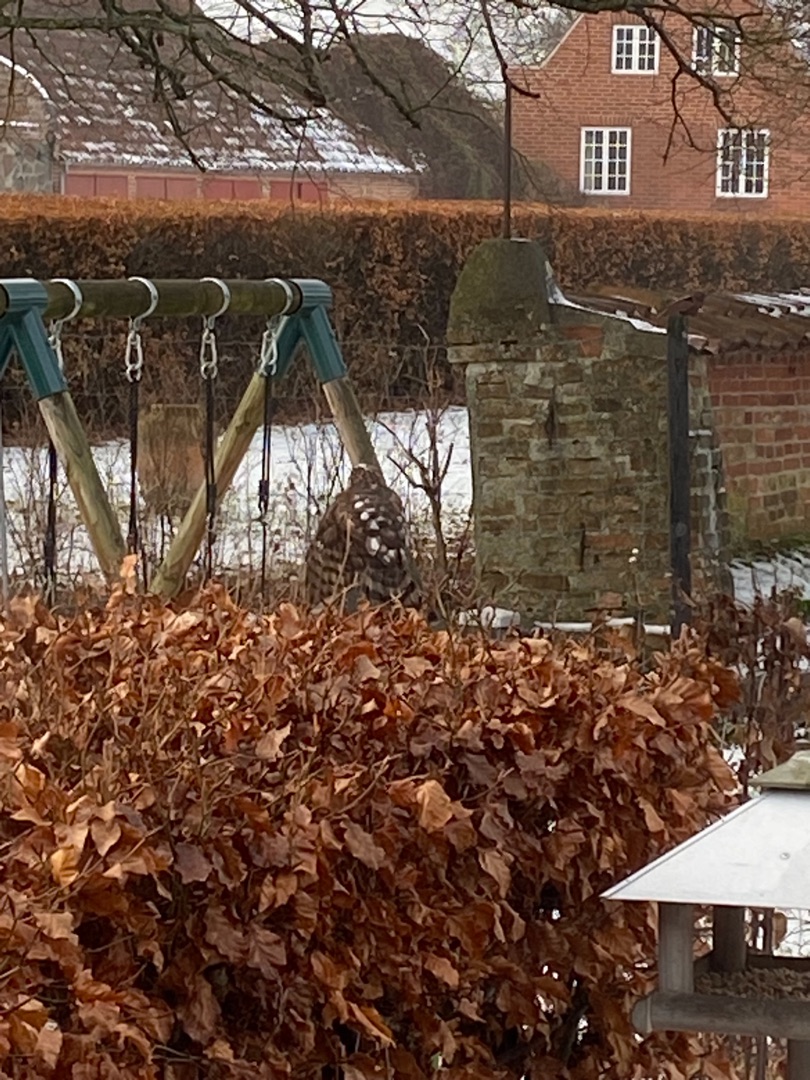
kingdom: Animalia
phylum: Chordata
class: Aves
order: Accipitriformes
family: Accipitridae
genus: Accipiter
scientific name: Accipiter nisus
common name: Spurvehøg
